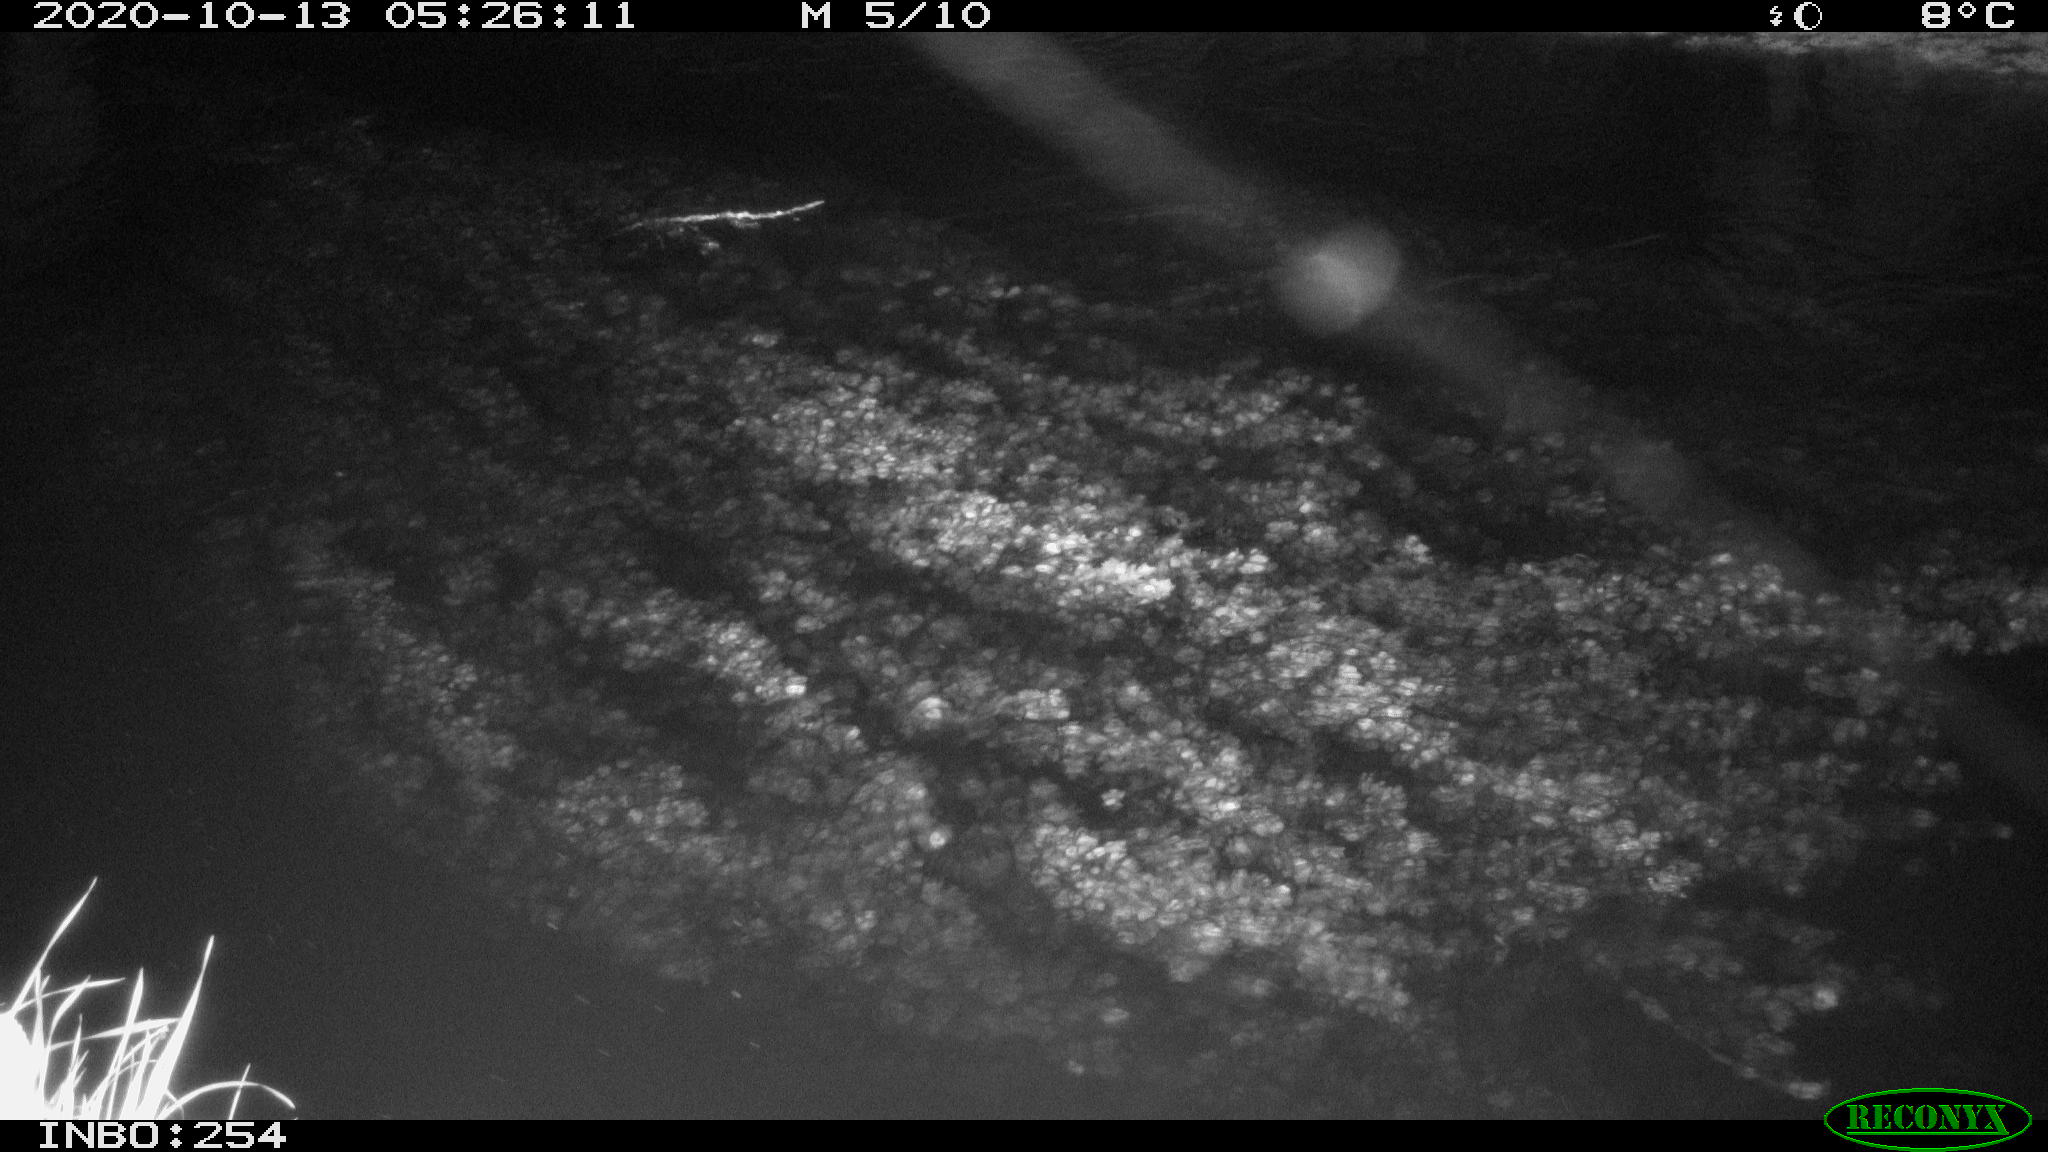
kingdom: Animalia
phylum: Chordata
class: Mammalia
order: Rodentia
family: Muridae
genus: Rattus
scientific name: Rattus norvegicus
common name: Brown rat
